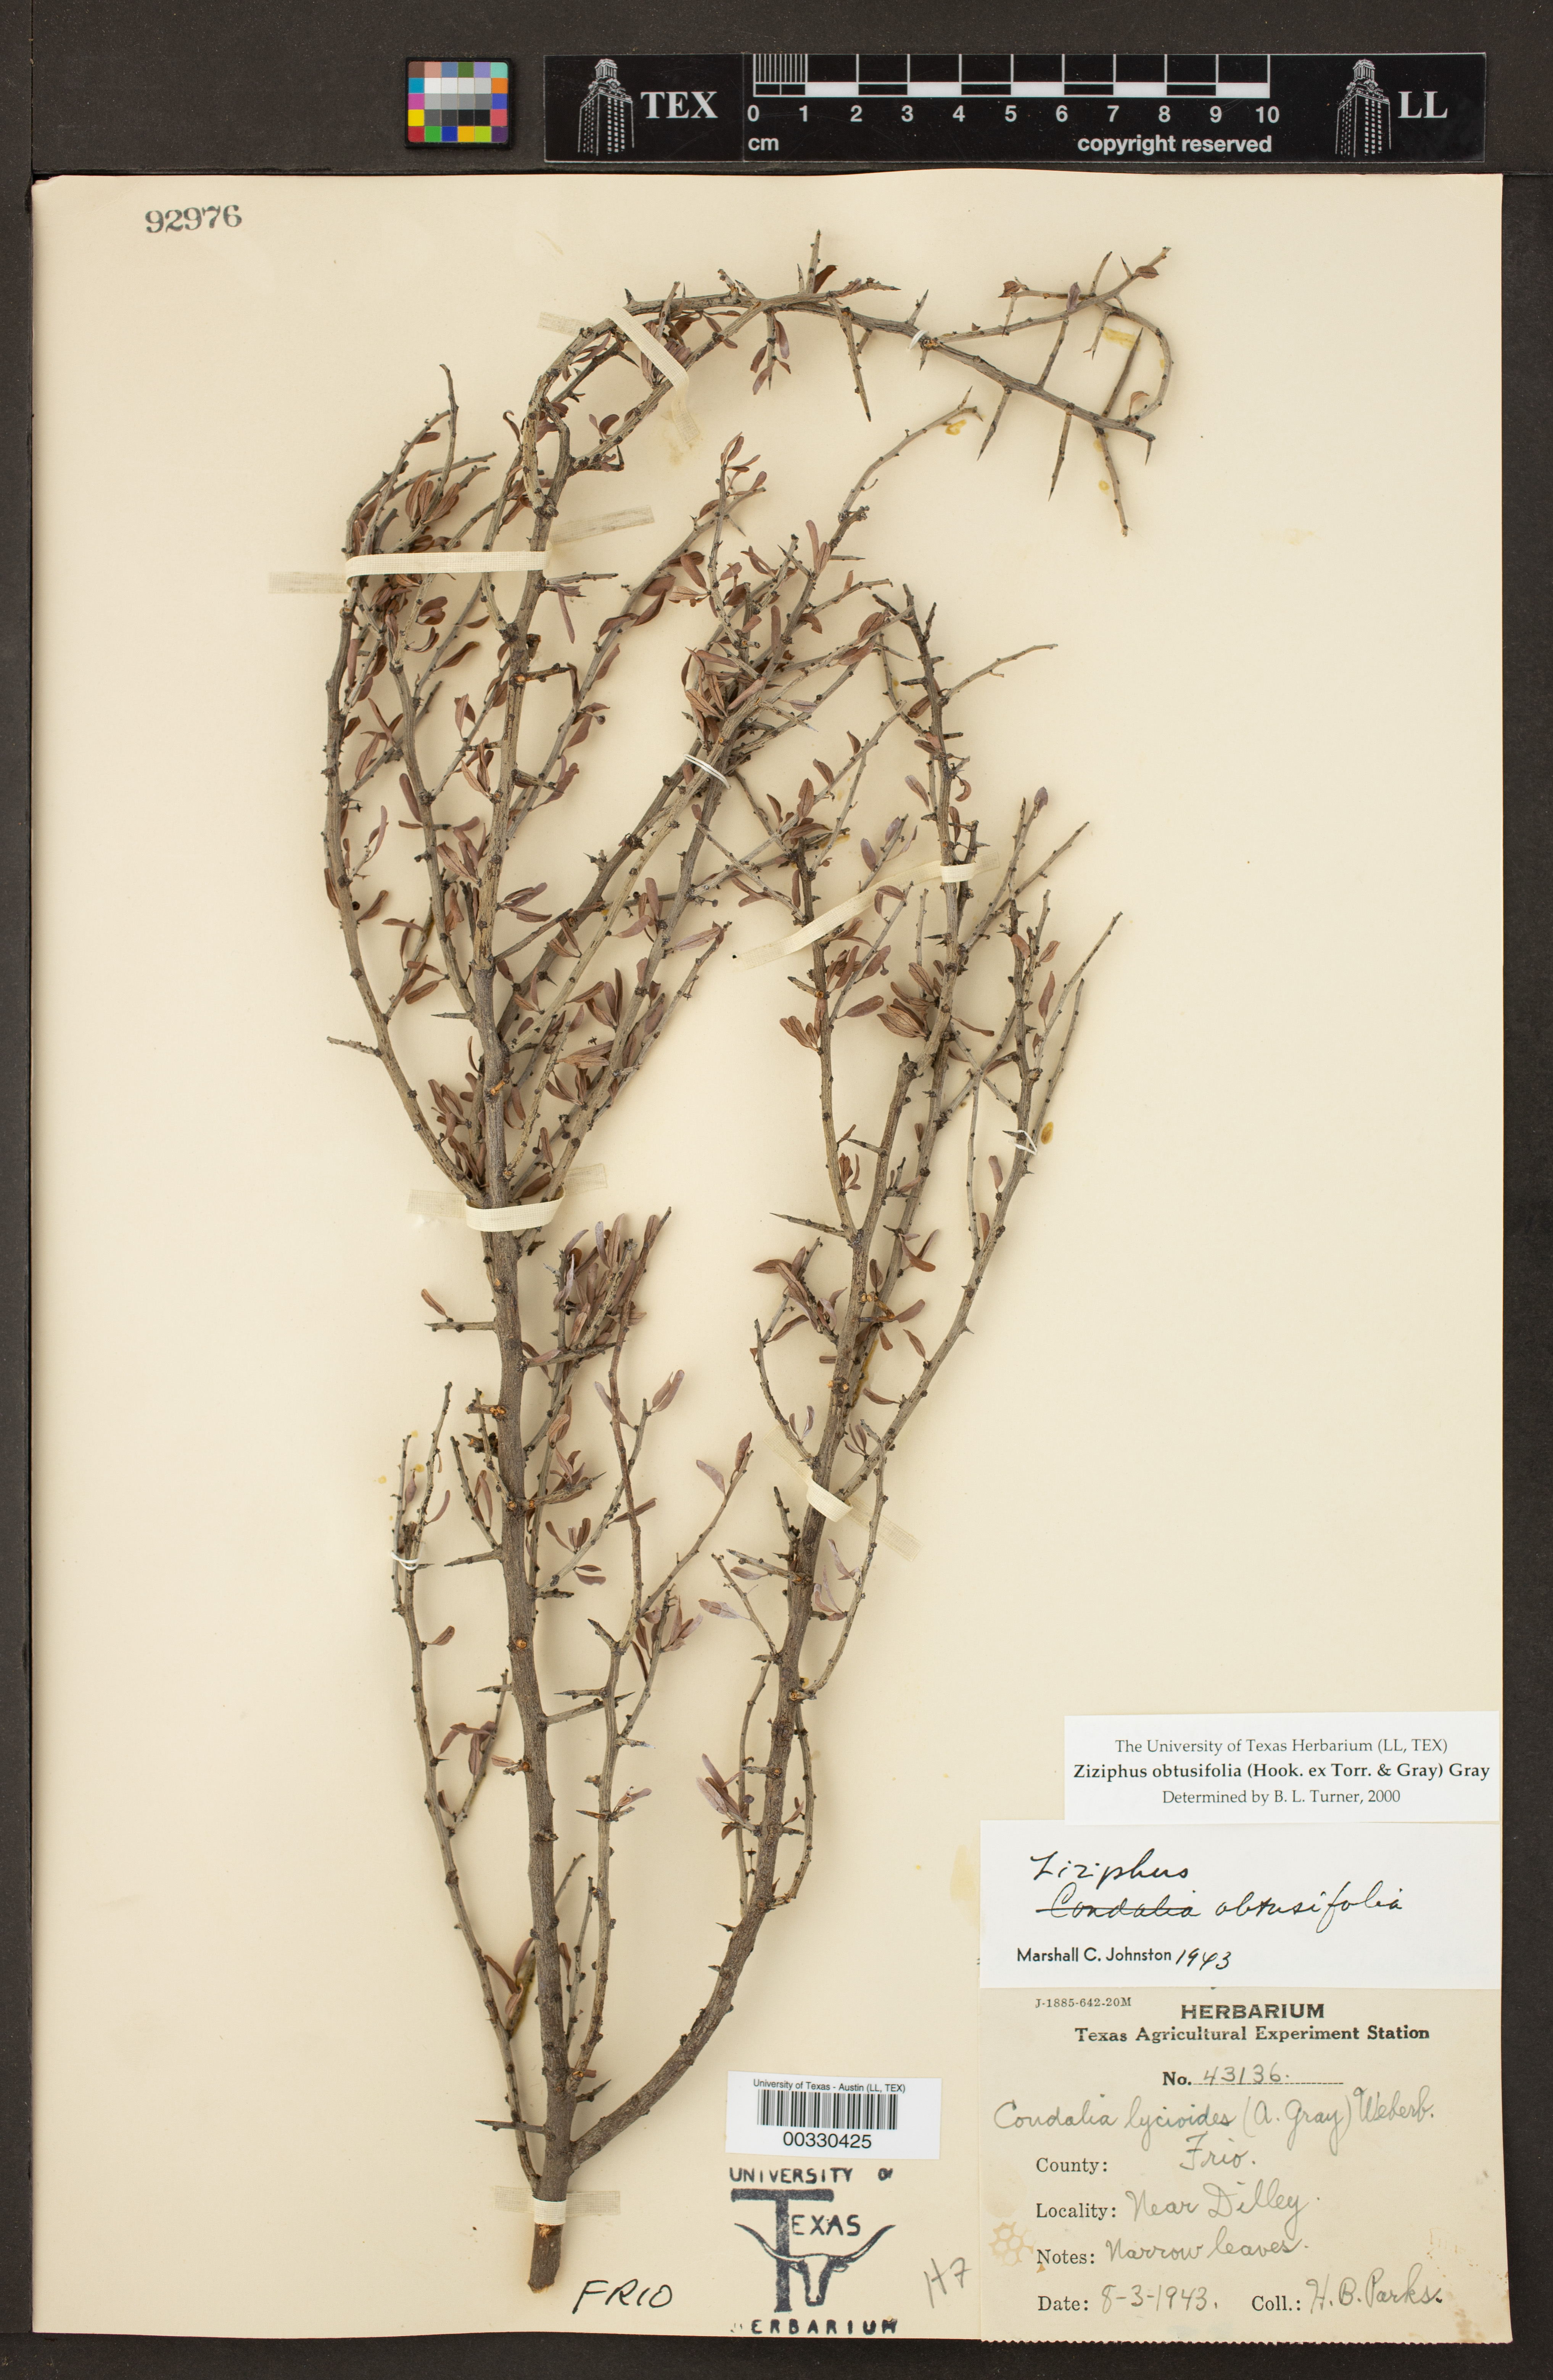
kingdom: Plantae
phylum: Tracheophyta
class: Magnoliopsida
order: Rosales
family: Rhamnaceae
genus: Sarcomphalus
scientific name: Sarcomphalus obtusifolius
